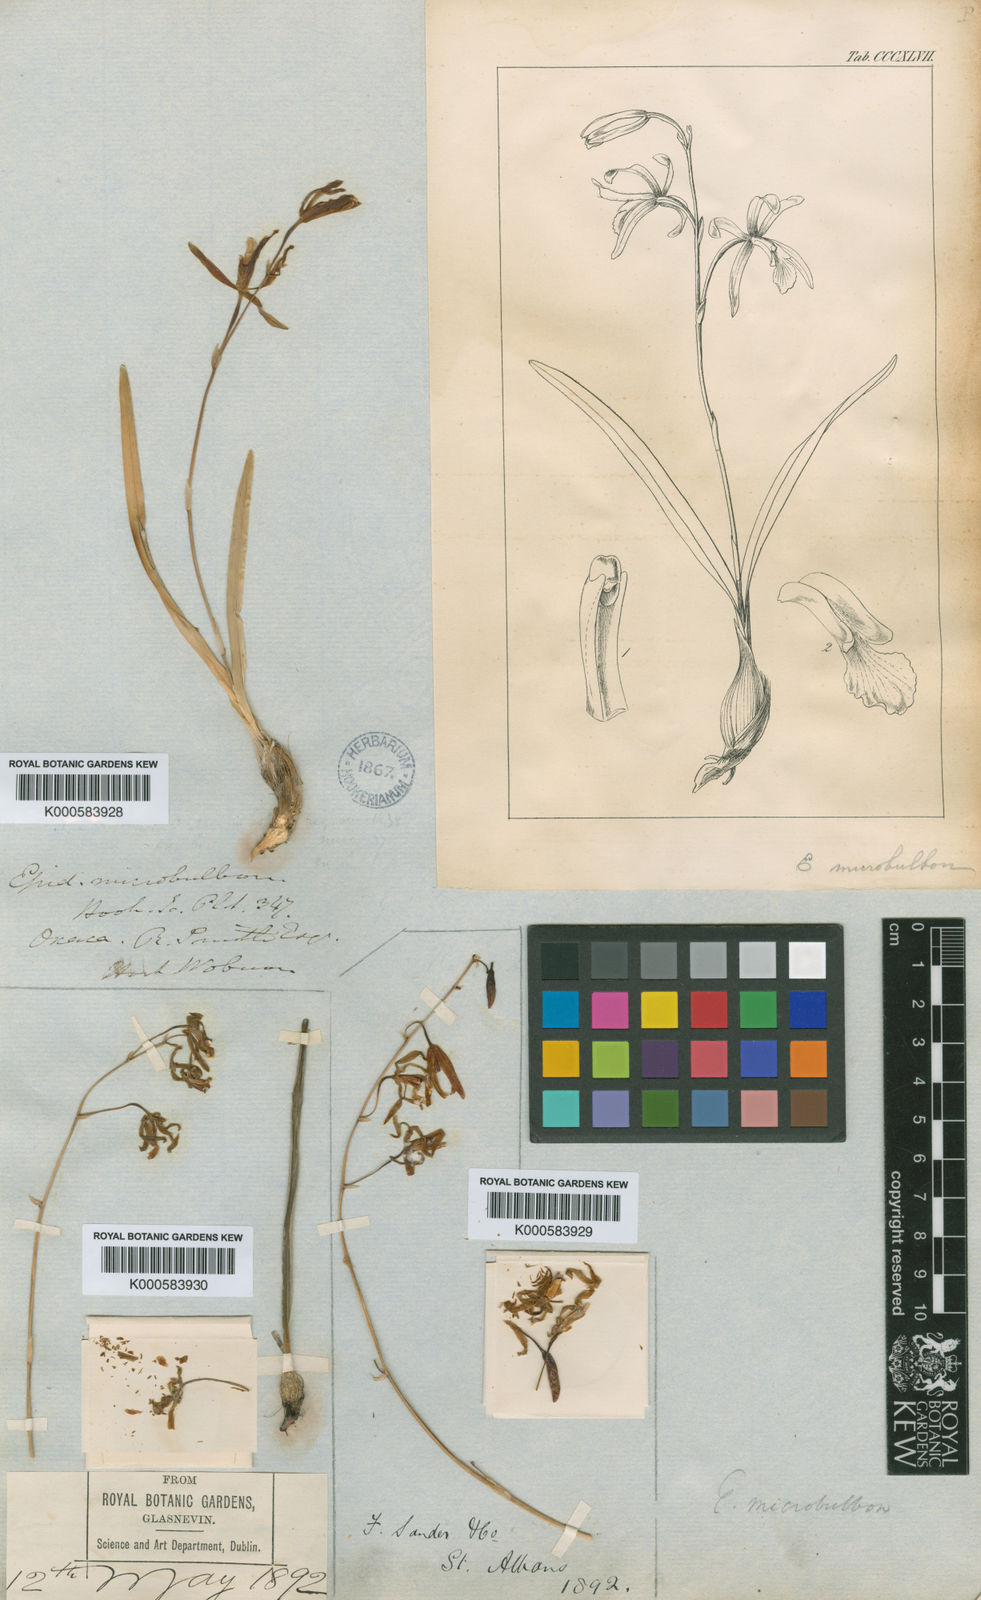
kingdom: Plantae
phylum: Tracheophyta
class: Liliopsida
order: Asparagales
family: Orchidaceae
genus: Encyclia
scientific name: Encyclia microbulbon
